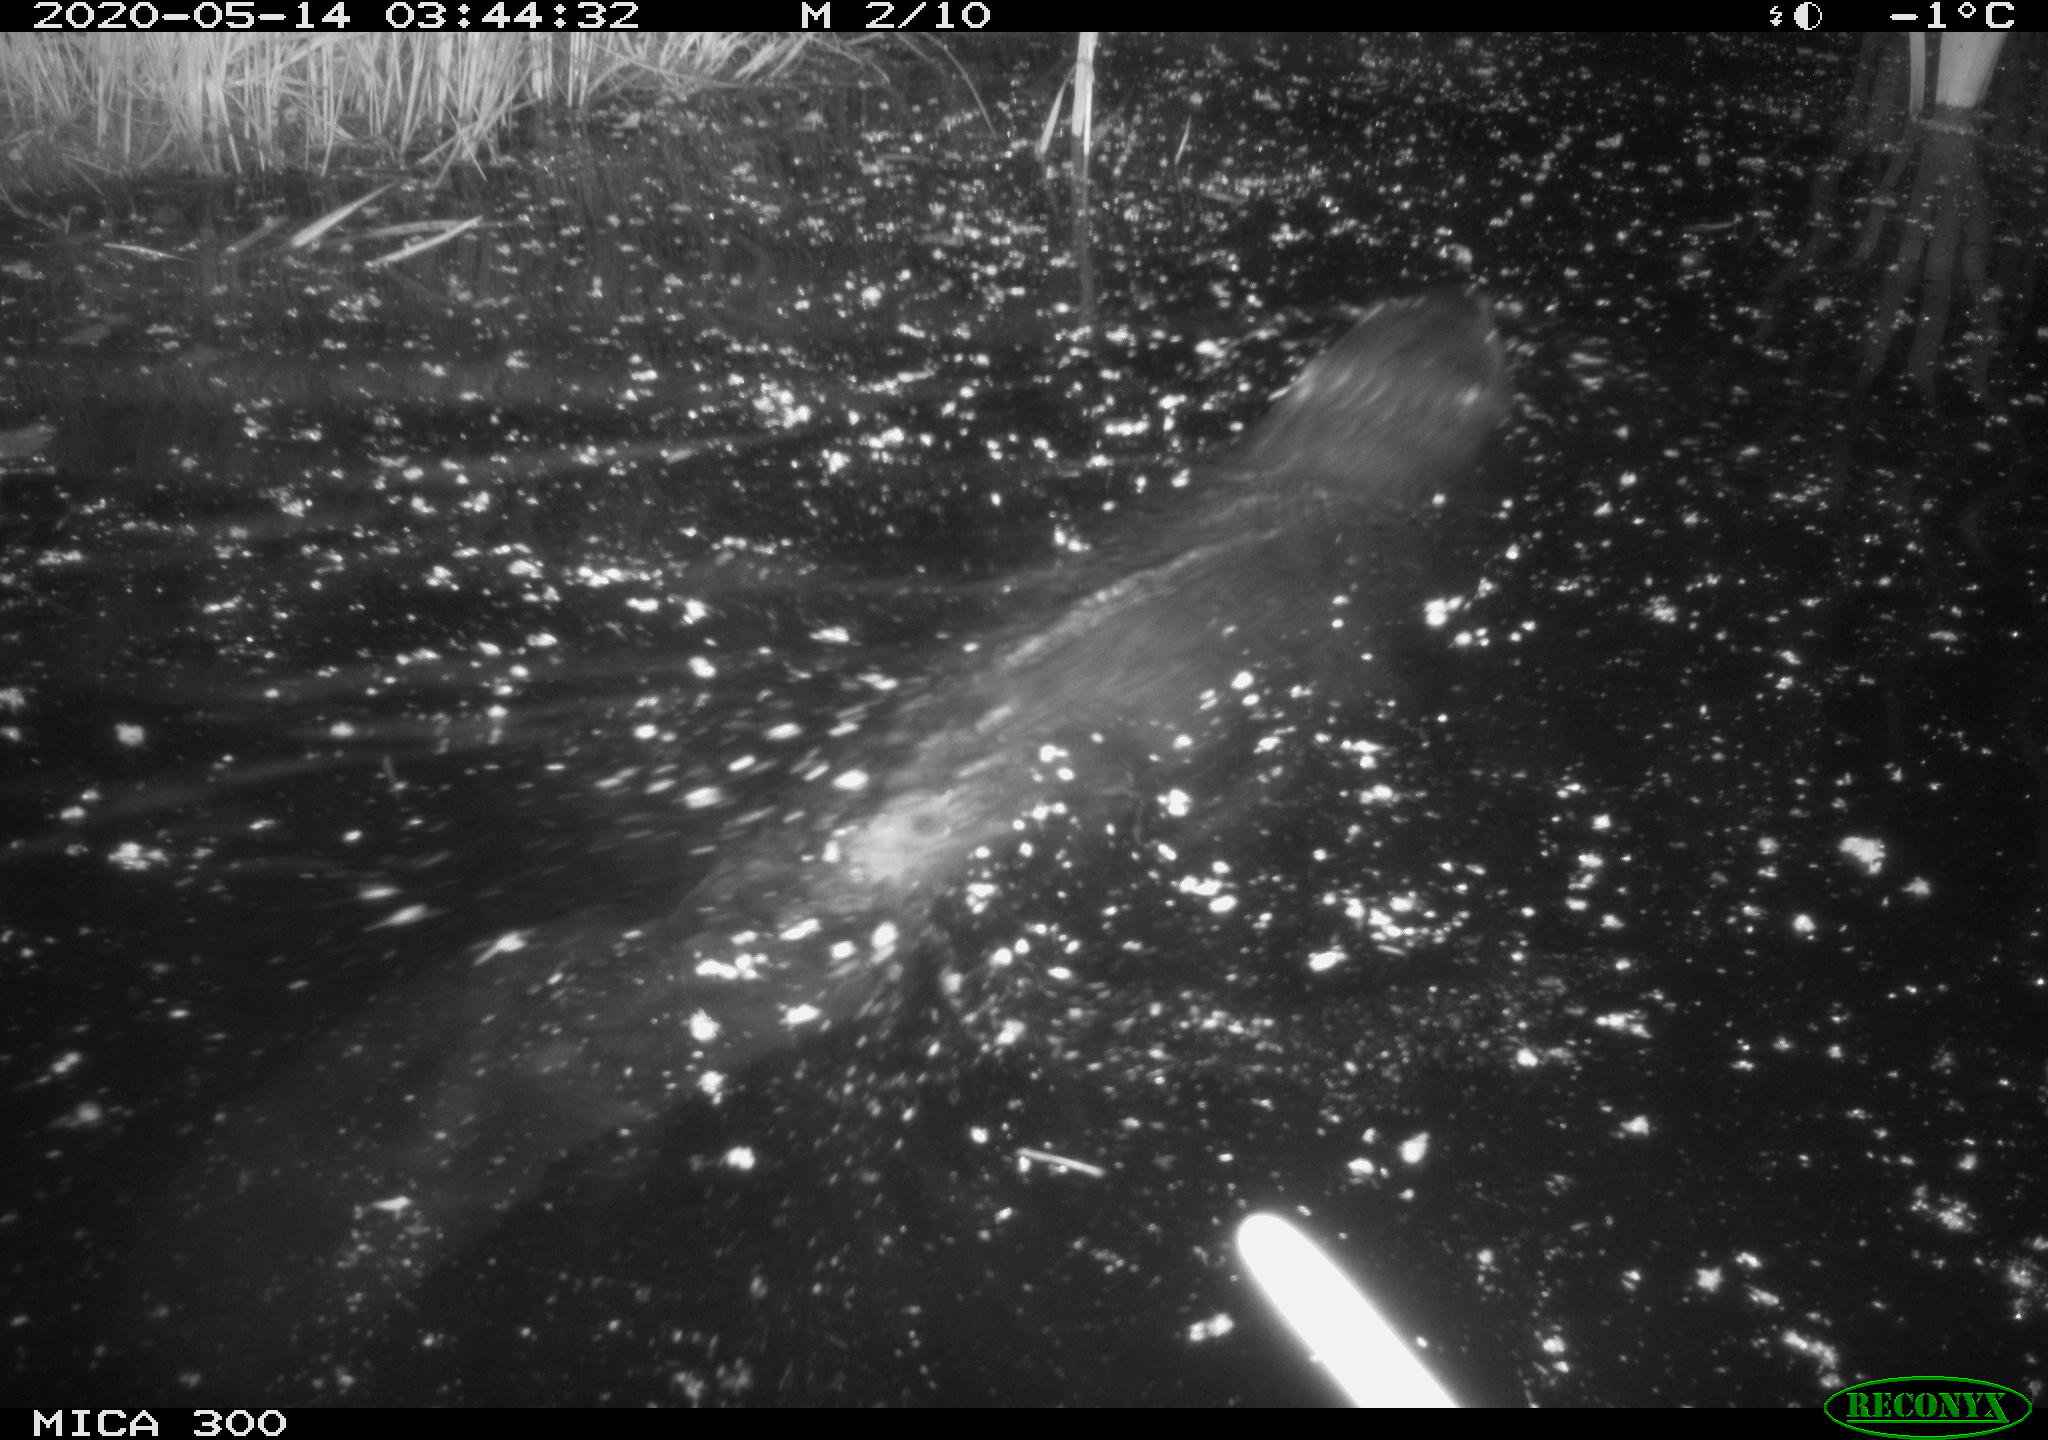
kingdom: Animalia
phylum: Chordata
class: Mammalia
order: Rodentia
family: Castoridae
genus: Castor
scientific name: Castor fiber
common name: Eurasian beaver
